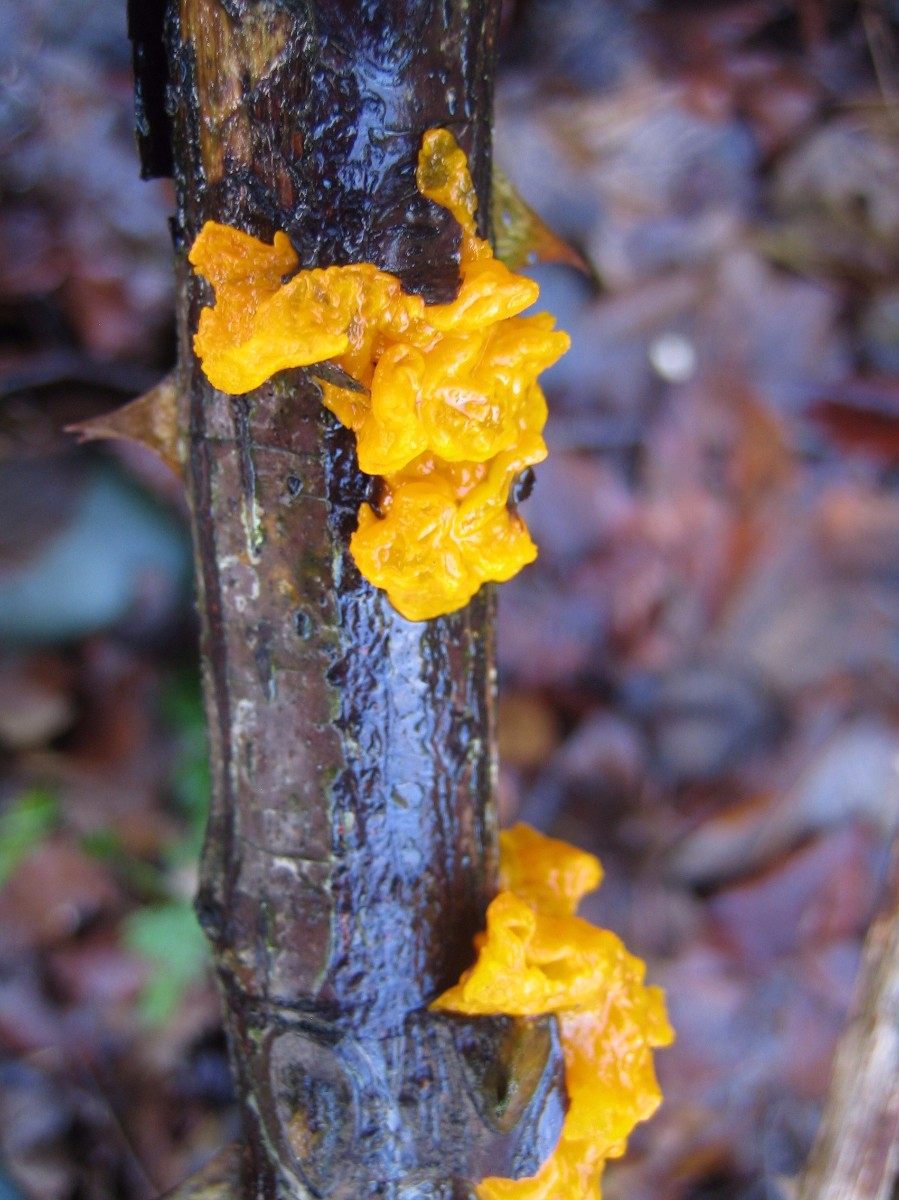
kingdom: Fungi
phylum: Basidiomycota
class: Tremellomycetes
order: Tremellales
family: Tremellaceae
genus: Tremella
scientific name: Tremella mesenterica
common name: gul bævresvamp
